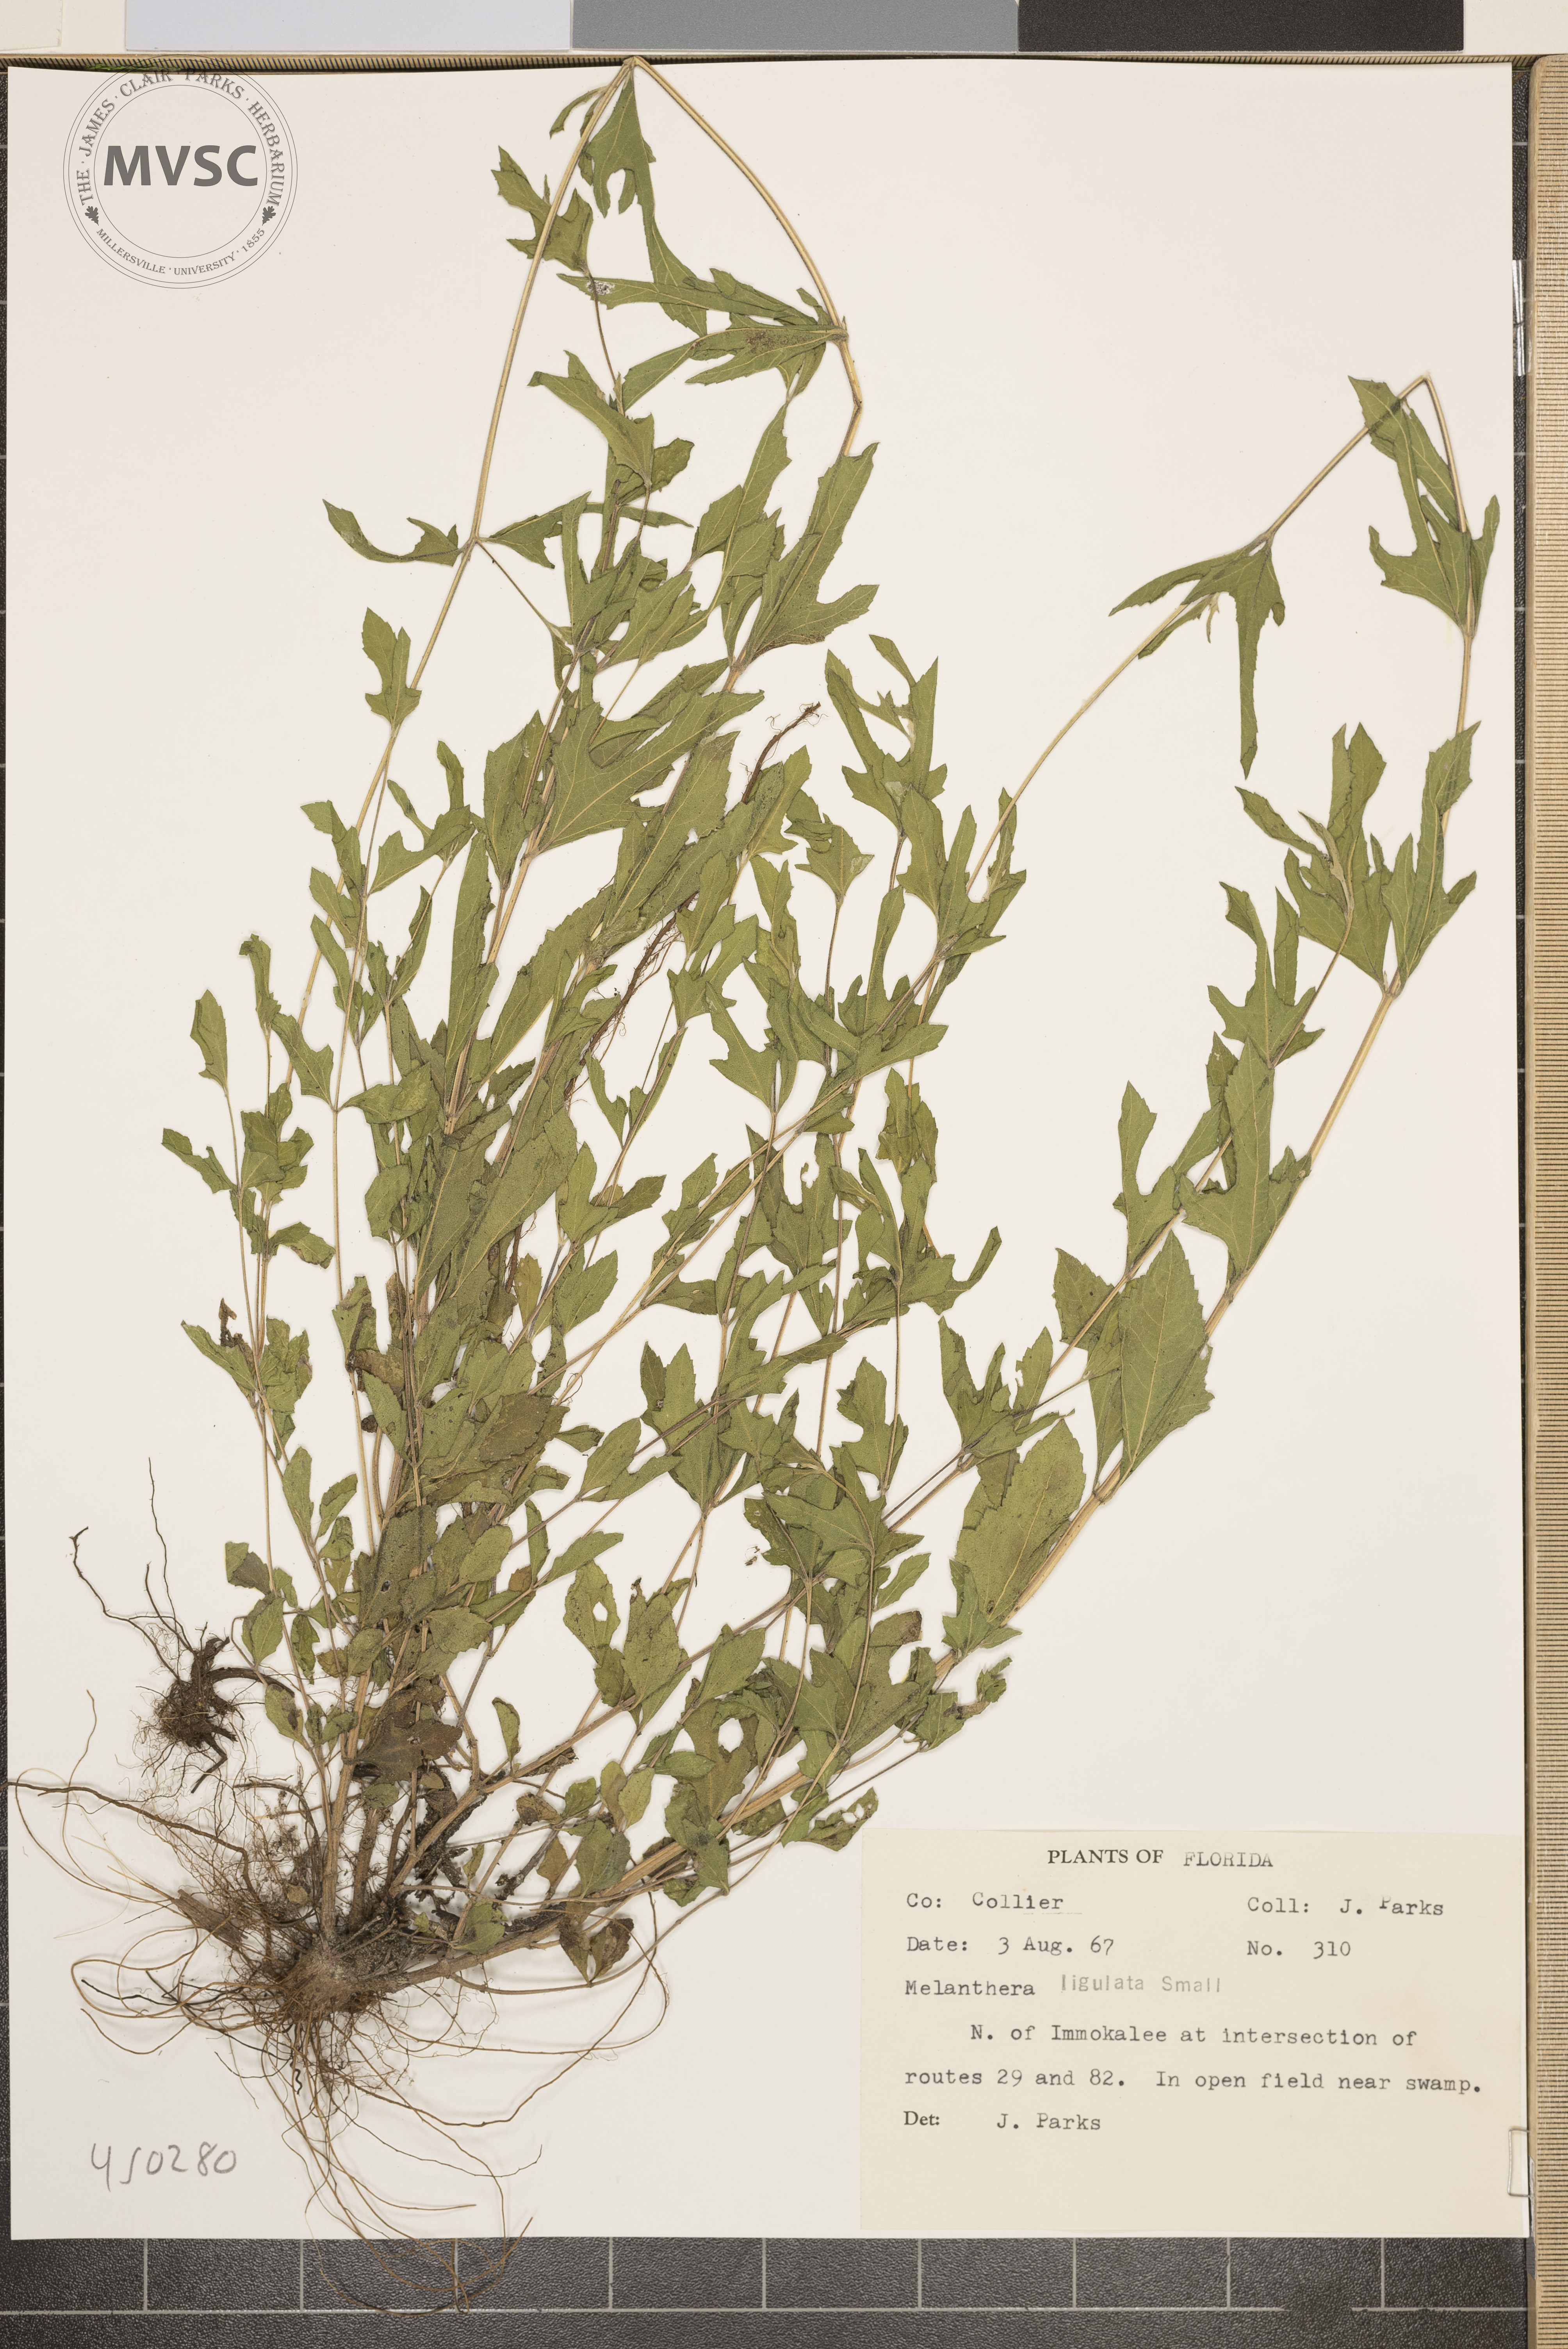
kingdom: Plantae
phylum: Tracheophyta
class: Magnoliopsida
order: Asterales
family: Asteraceae
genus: Melanthera
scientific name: Melanthera nivea
